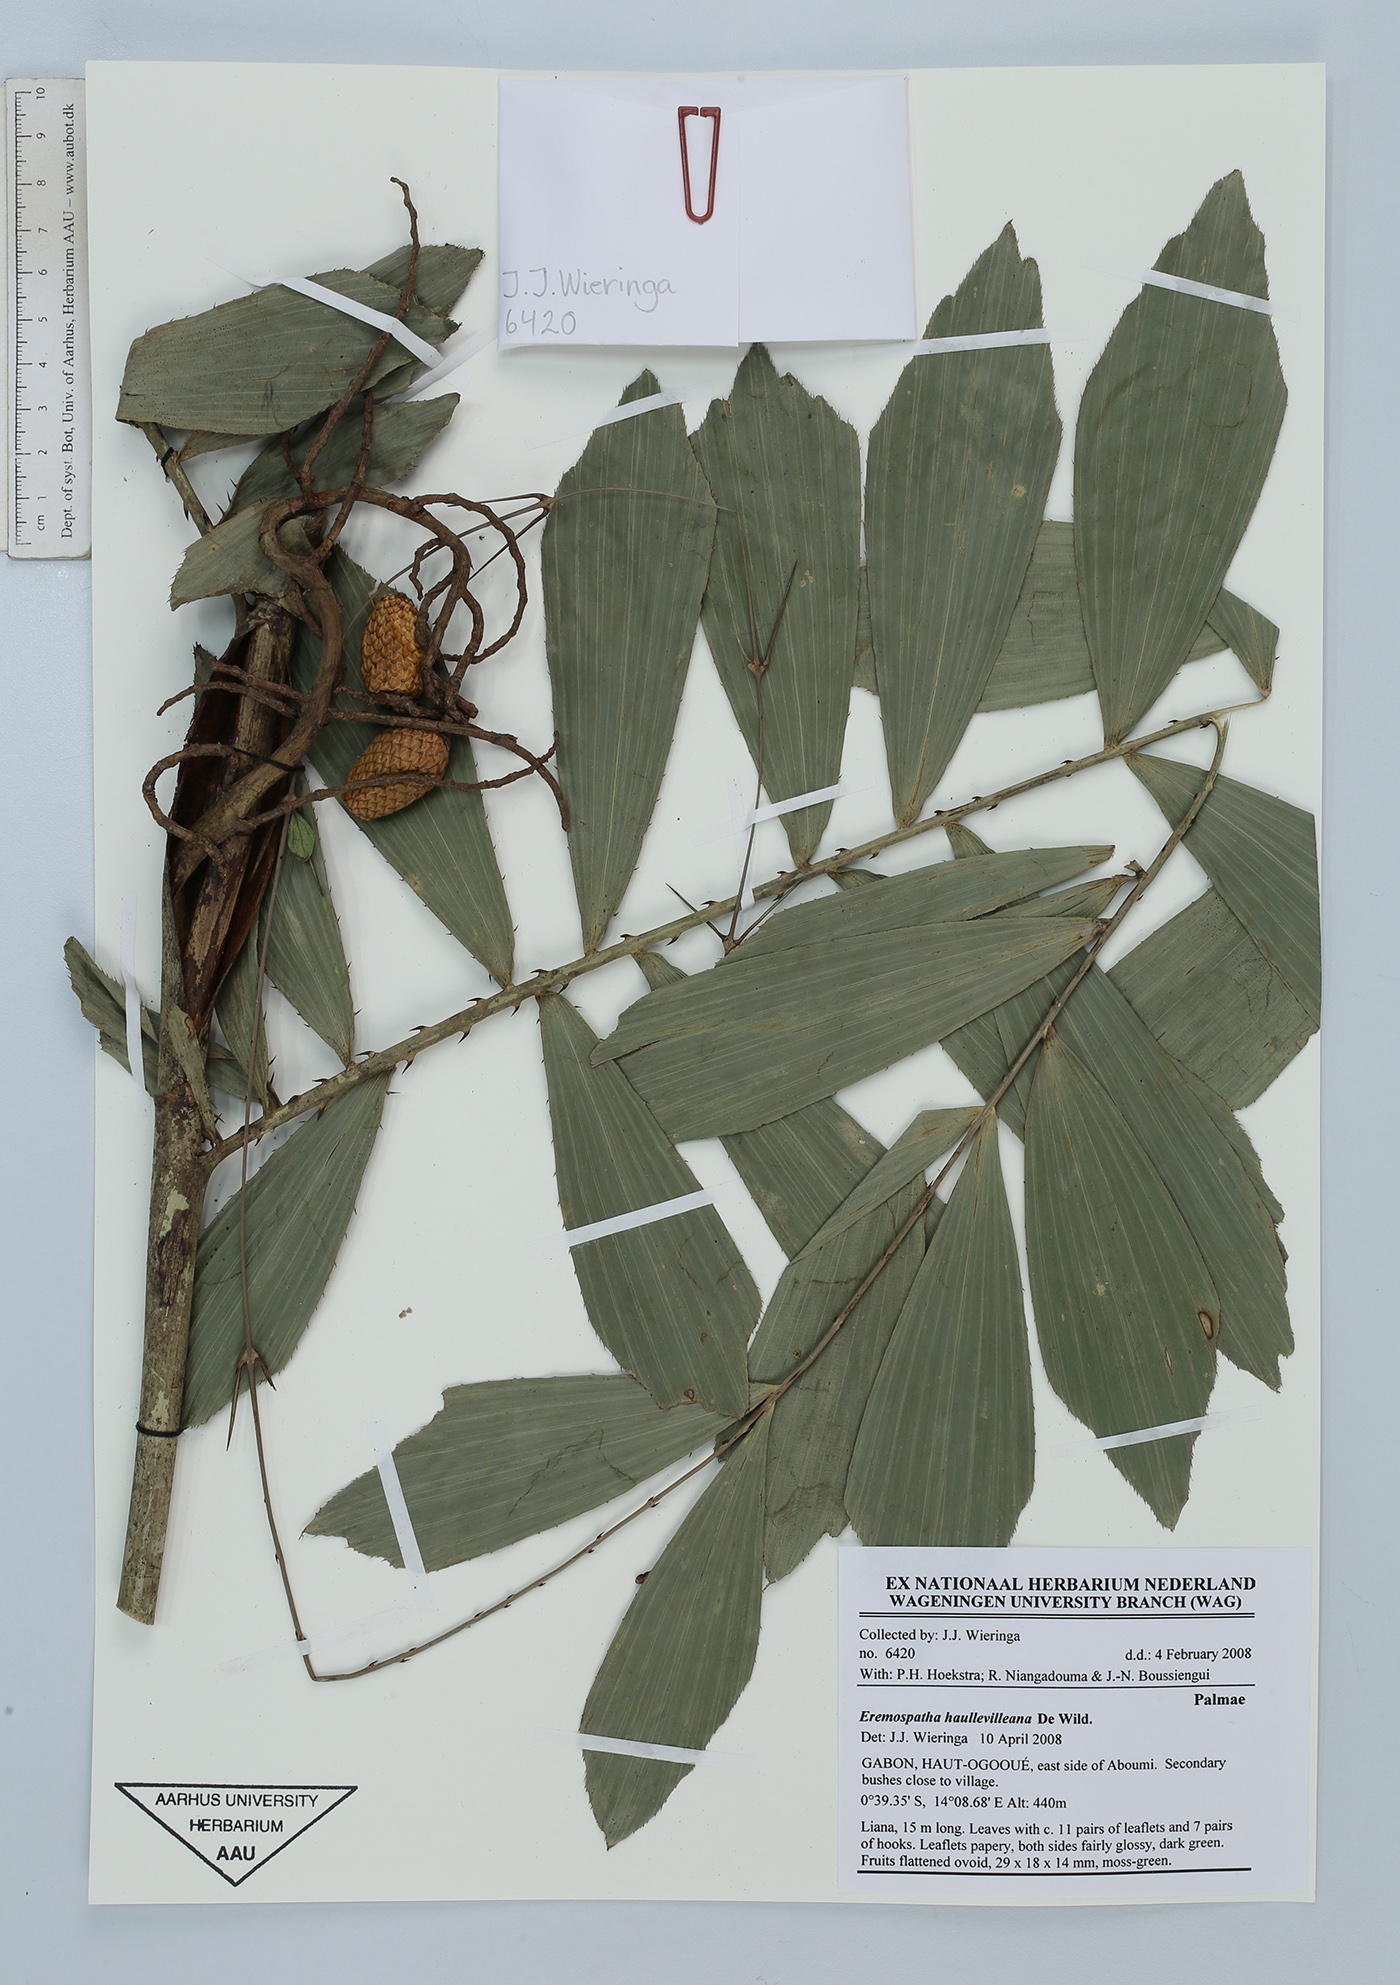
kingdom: Plantae
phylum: Tracheophyta
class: Liliopsida
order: Arecales
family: Arecaceae
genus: Eremospatha
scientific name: Eremospatha haullevilleana
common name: Rattan
